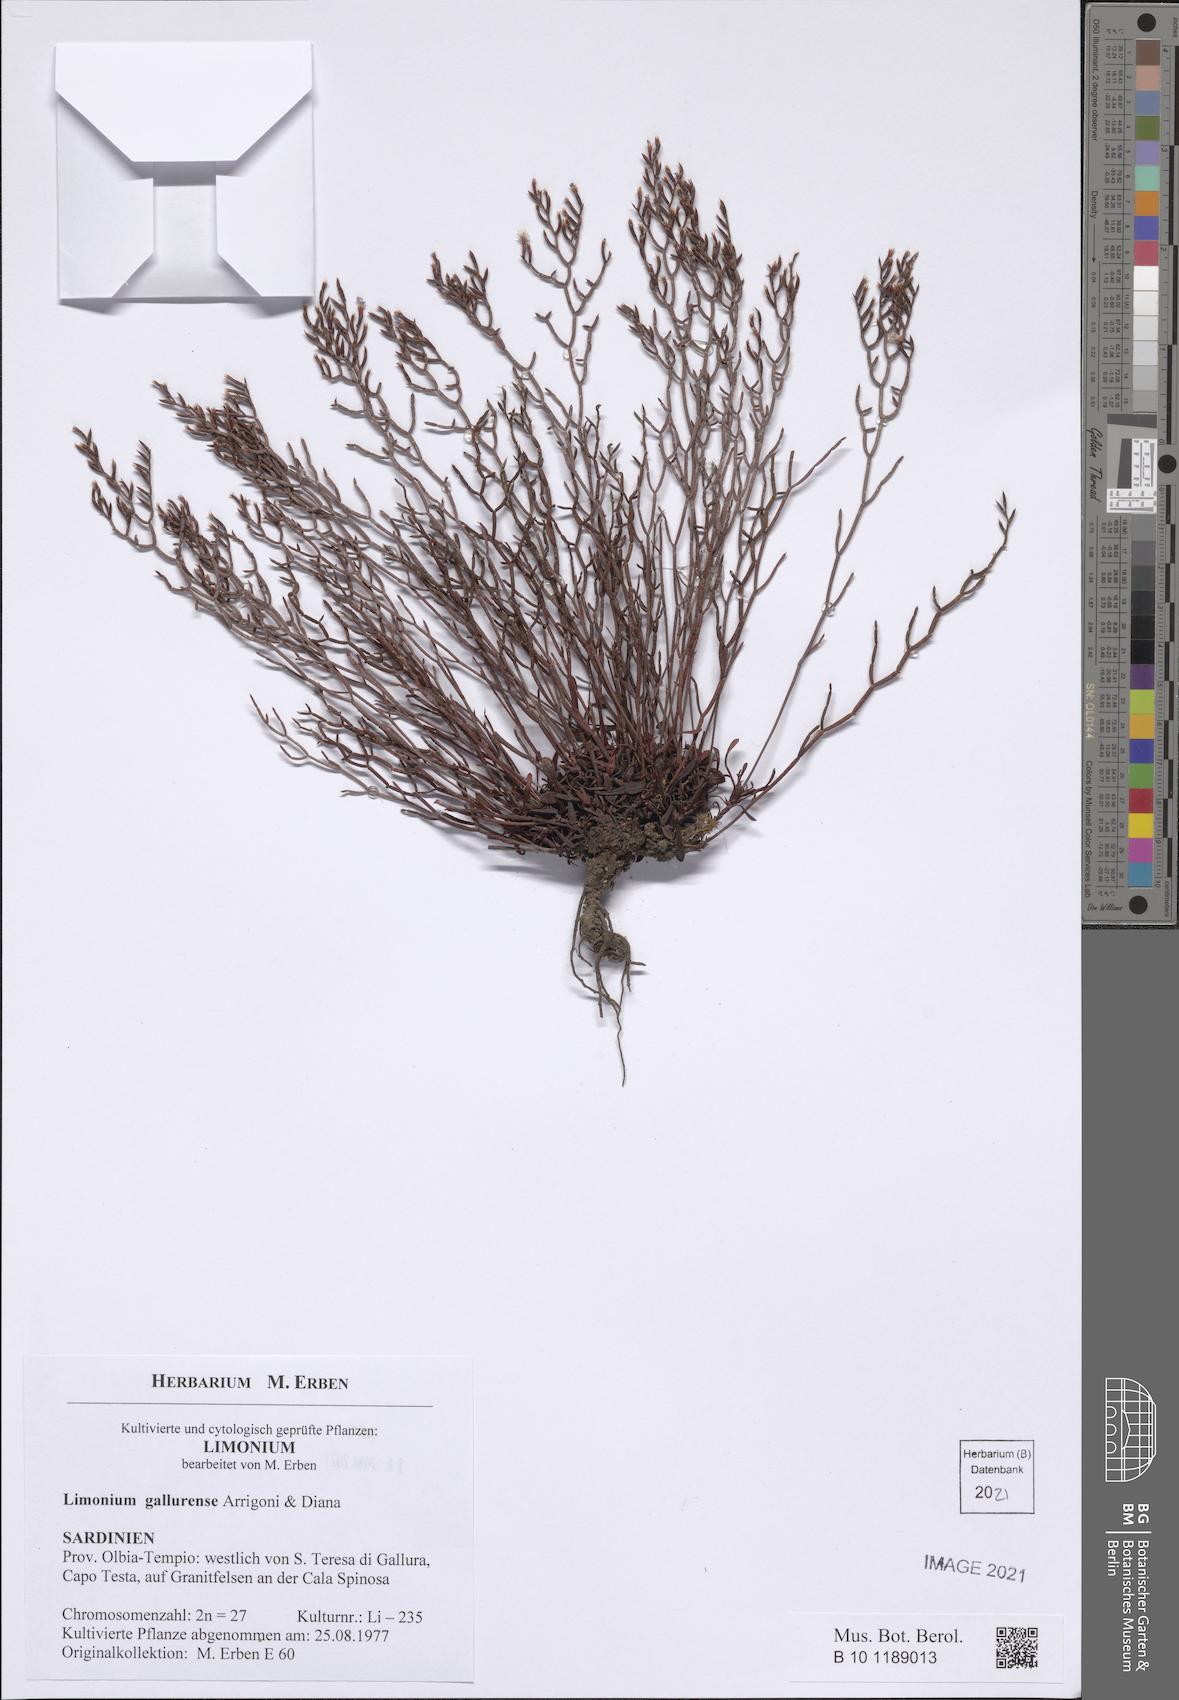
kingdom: Plantae
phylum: Tracheophyta
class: Magnoliopsida
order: Caryophyllales
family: Plumbaginaceae
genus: Limonium
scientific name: Limonium gallurense
